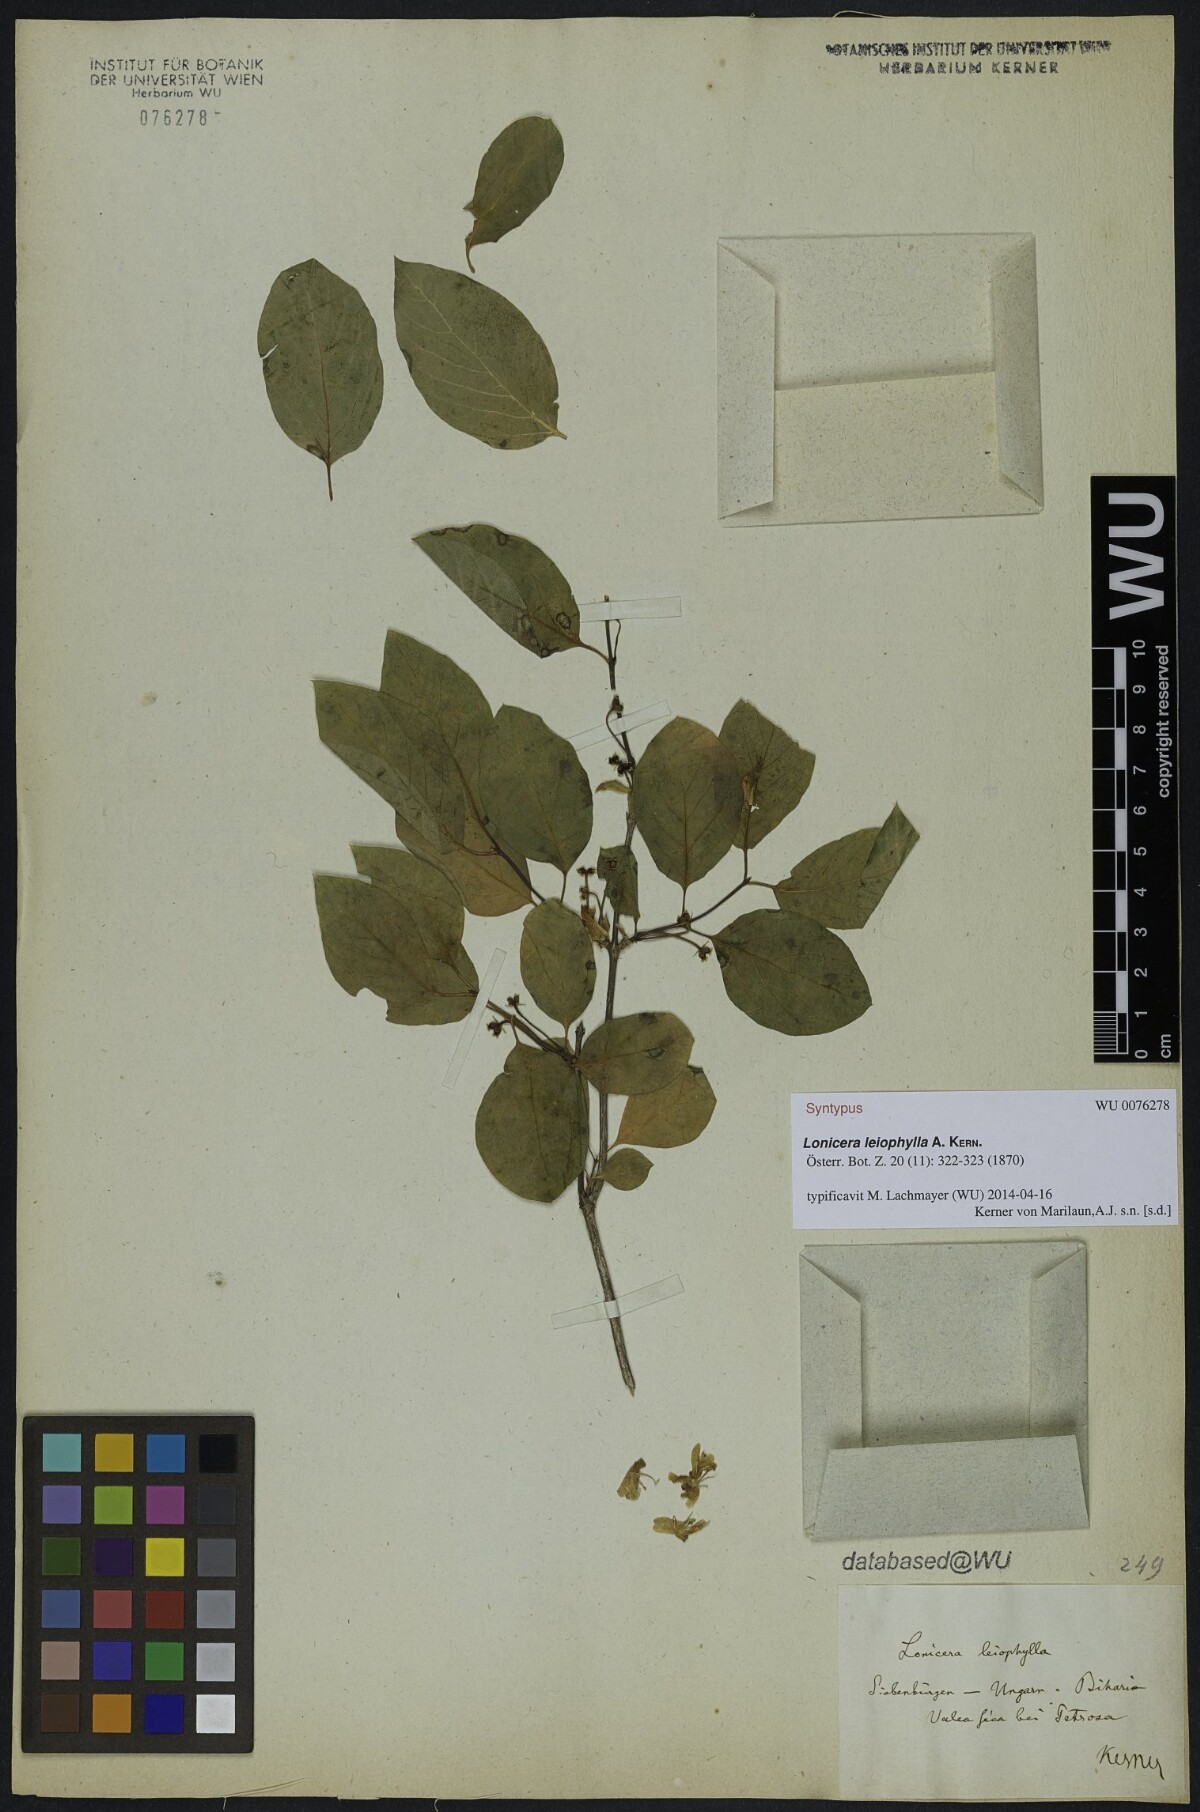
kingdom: Plantae
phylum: Tracheophyta
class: Magnoliopsida
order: Dipsacales
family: Caprifoliaceae
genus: Lonicera
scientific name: Lonicera xylosteum
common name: Fly honeysuckle
